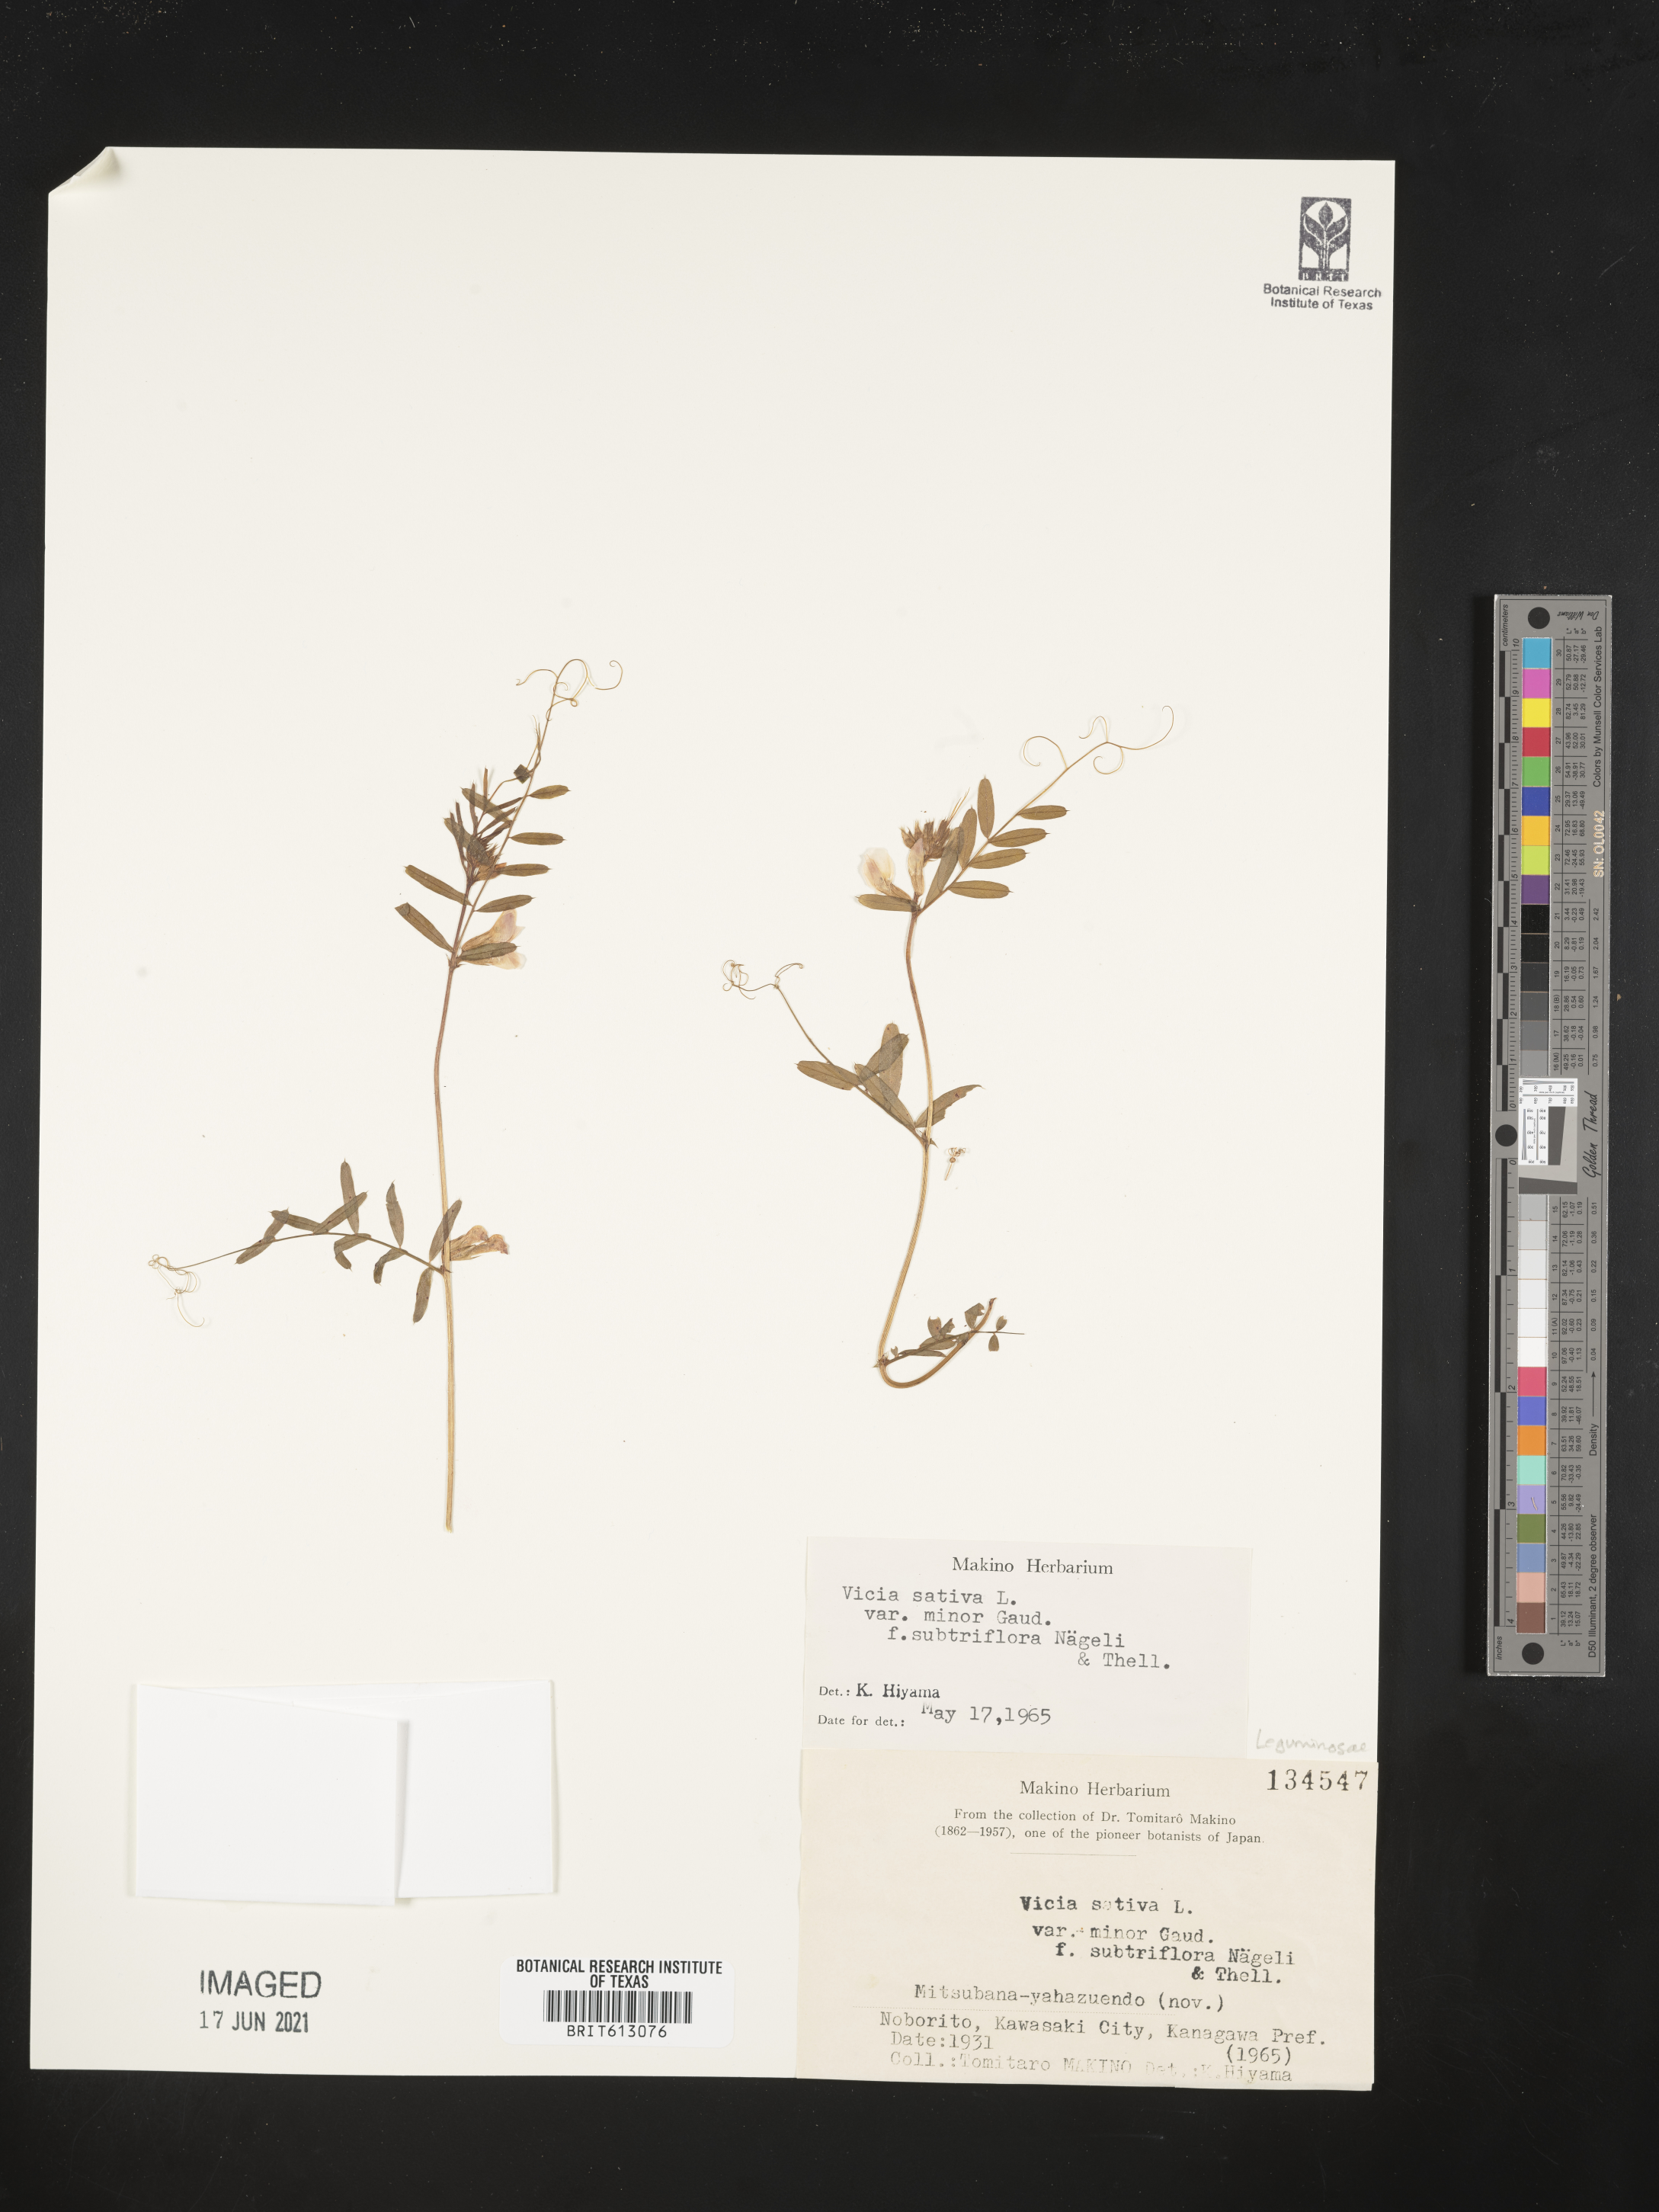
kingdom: Plantae
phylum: Tracheophyta
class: Magnoliopsida
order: Fabales
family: Fabaceae
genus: Vicia
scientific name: Vicia sativa
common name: Garden vetch
